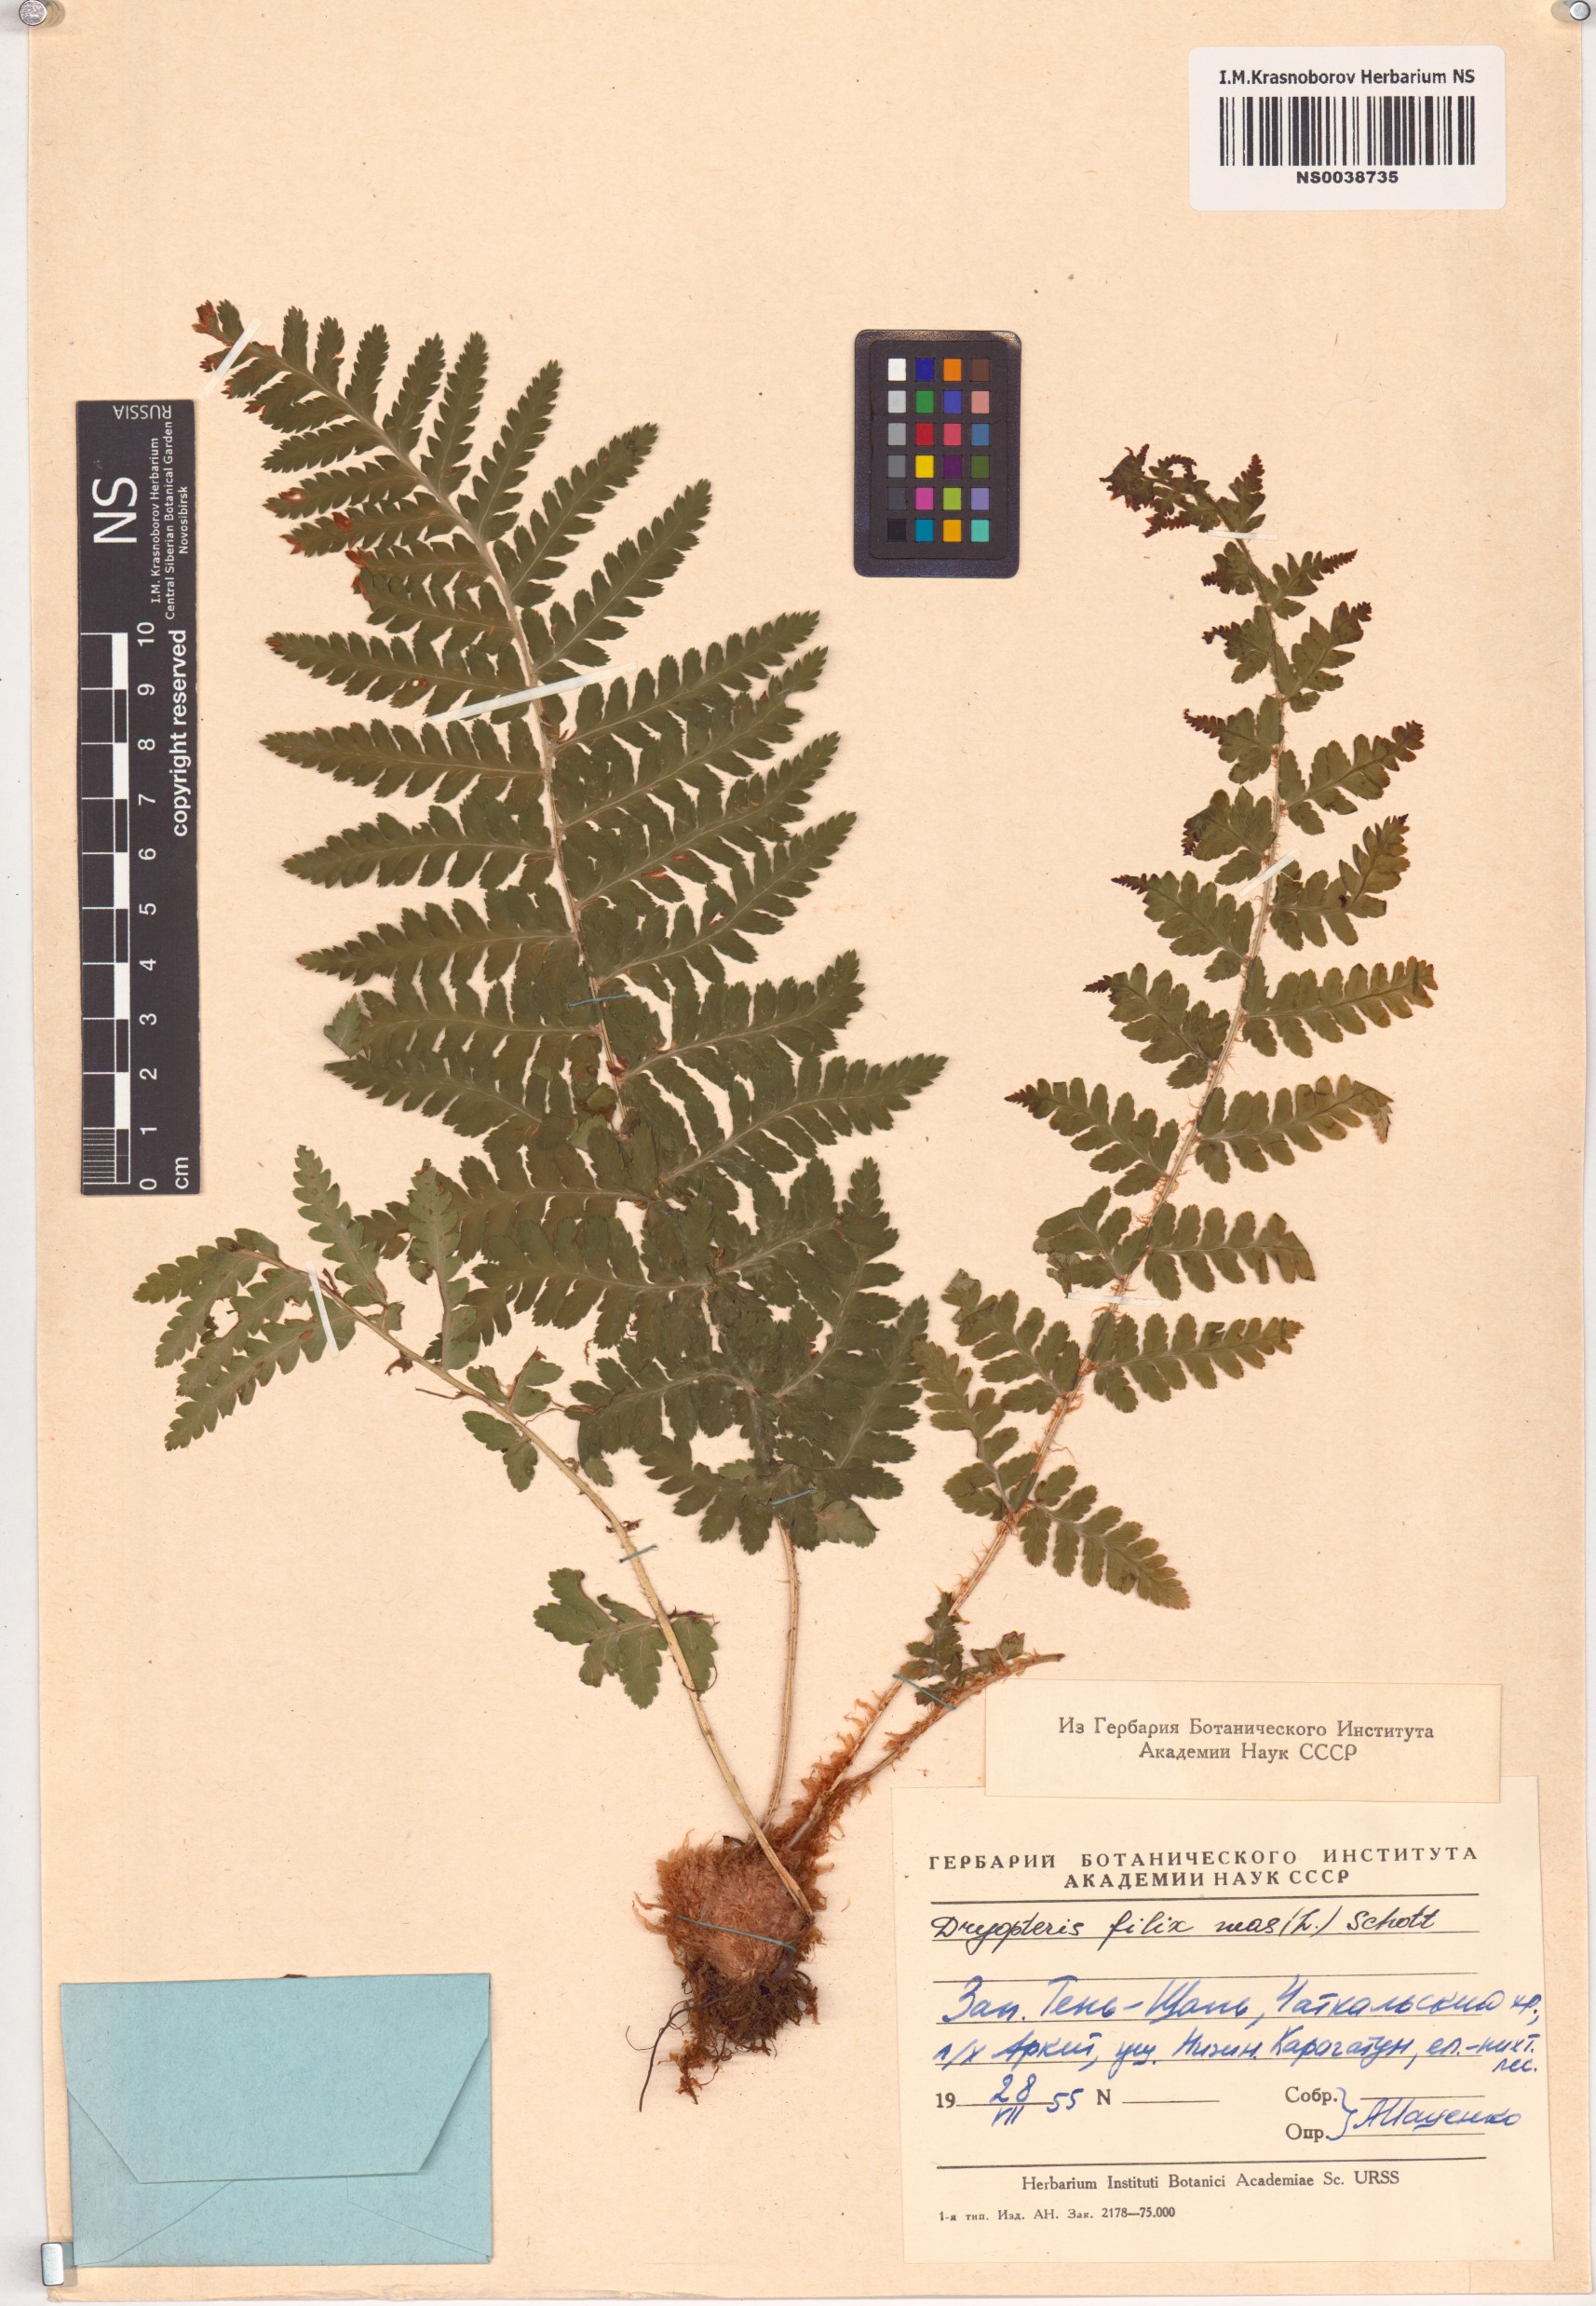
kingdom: Plantae
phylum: Tracheophyta
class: Polypodiopsida
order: Polypodiales
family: Dryopteridaceae
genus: Dryopteris
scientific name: Dryopteris filix-mas
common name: Male fern
